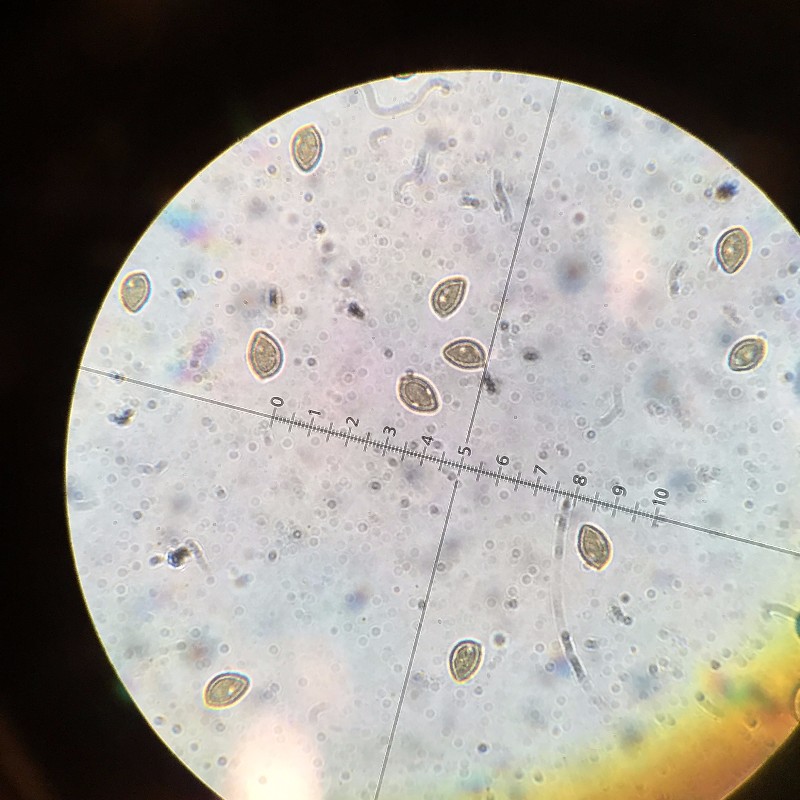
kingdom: Fungi
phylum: Basidiomycota
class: Agaricomycetes
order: Agaricales
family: Hymenogastraceae
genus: Hebeloma
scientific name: Hebeloma
